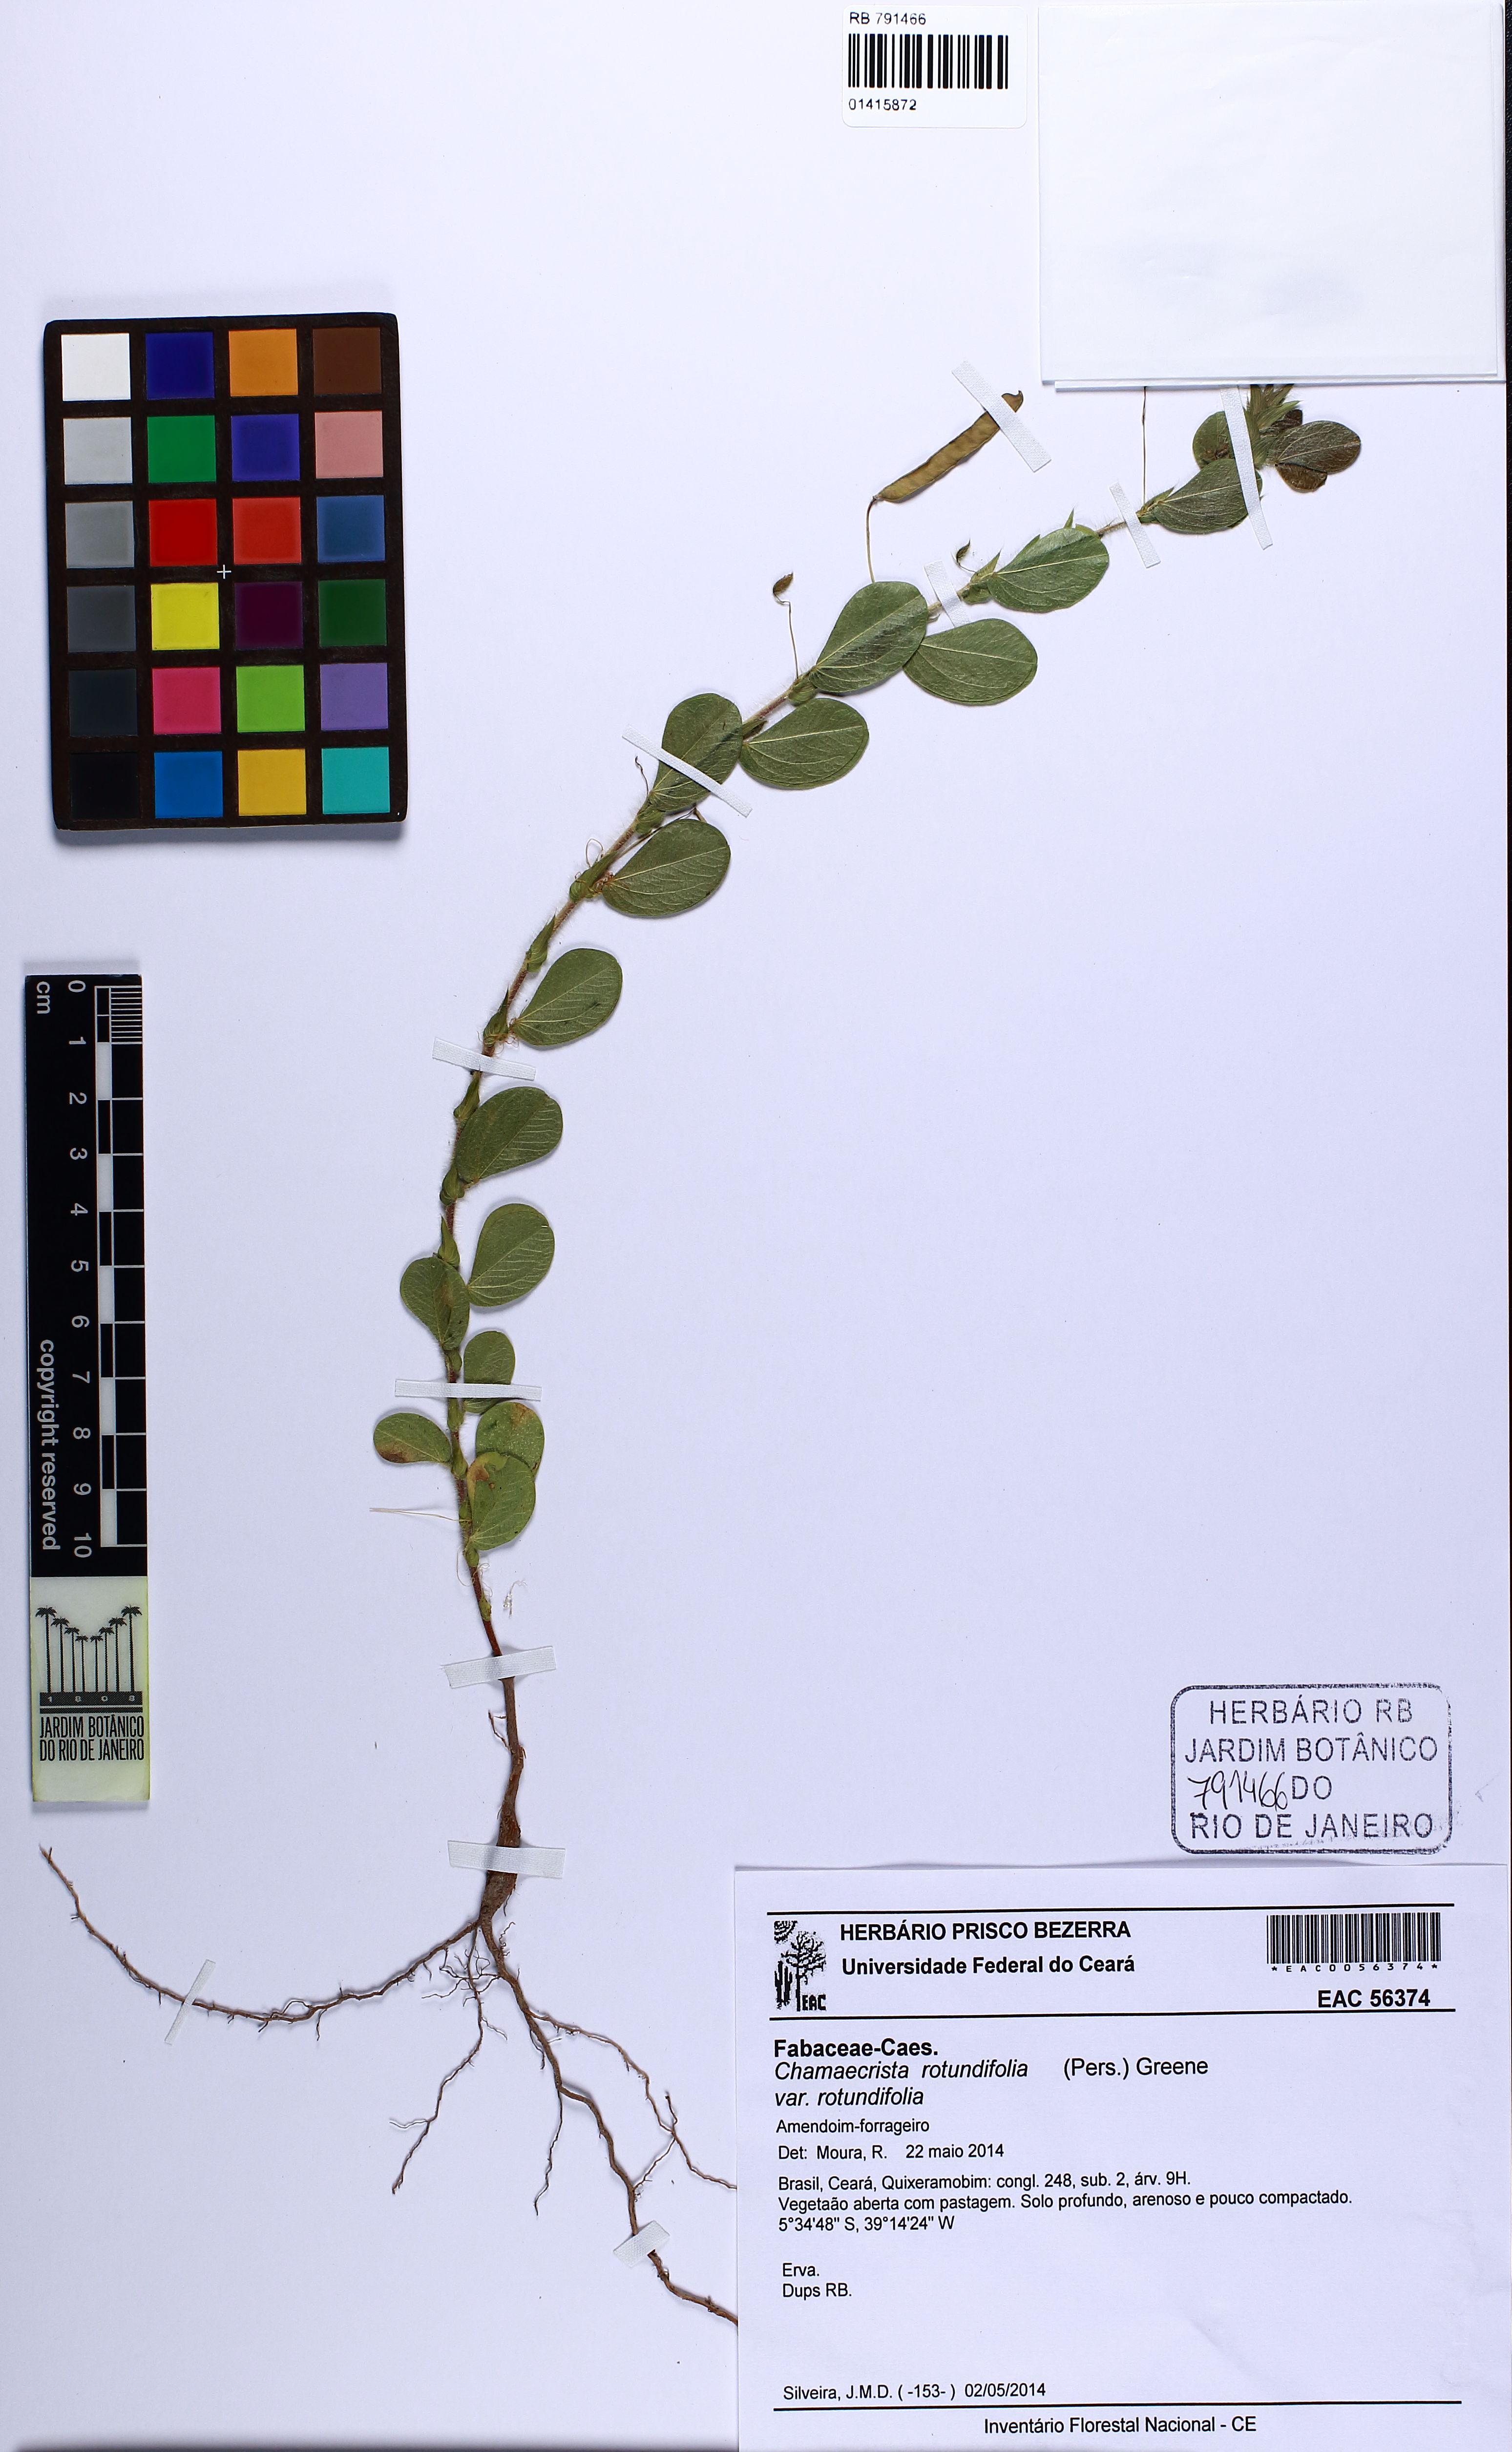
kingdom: Plantae
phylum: Tracheophyta
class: Magnoliopsida
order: Fabales
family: Fabaceae
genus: Chamaecrista
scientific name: Chamaecrista rotundifolia
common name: Round-leaf cassia
